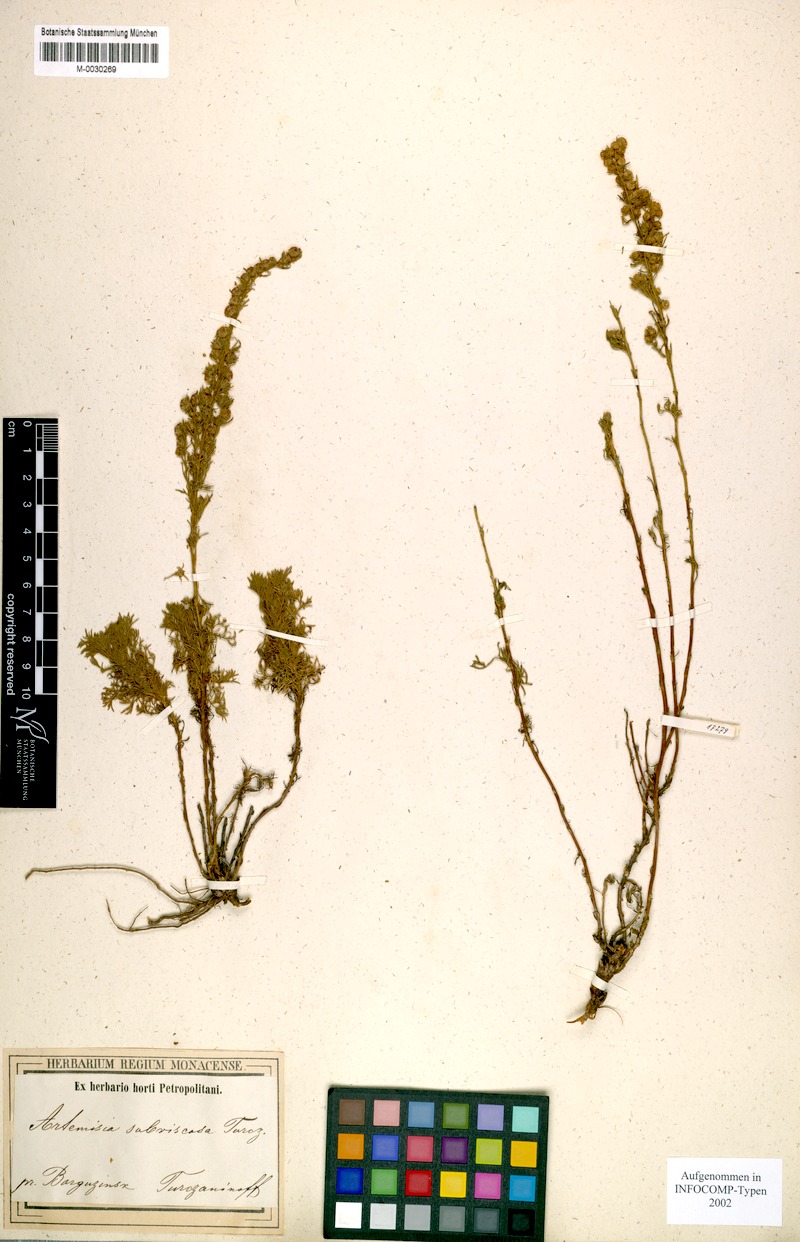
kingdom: Plantae
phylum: Tracheophyta
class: Magnoliopsida
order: Asterales
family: Asteraceae
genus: Artemisia
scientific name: Artemisia obtusiloba
